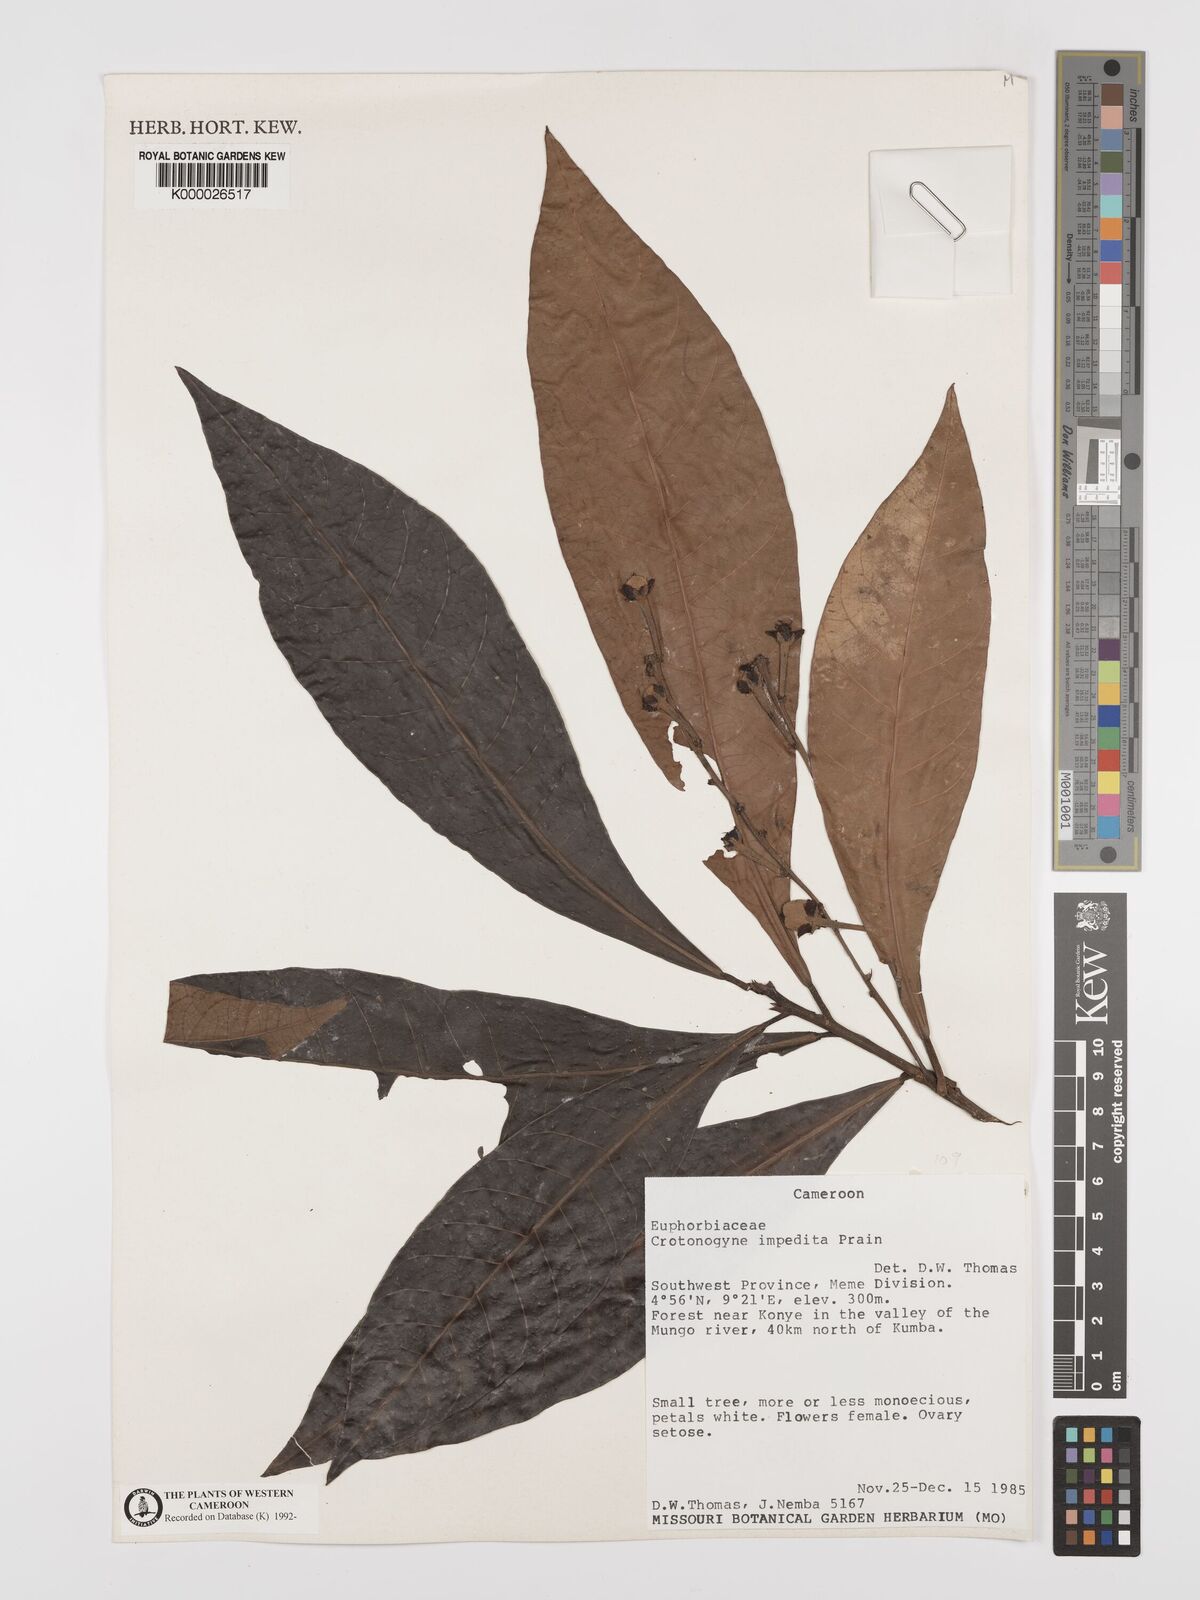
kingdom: Plantae
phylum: Tracheophyta
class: Magnoliopsida
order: Malpighiales
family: Euphorbiaceae
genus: Crotonogyne
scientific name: Crotonogyne poggei
